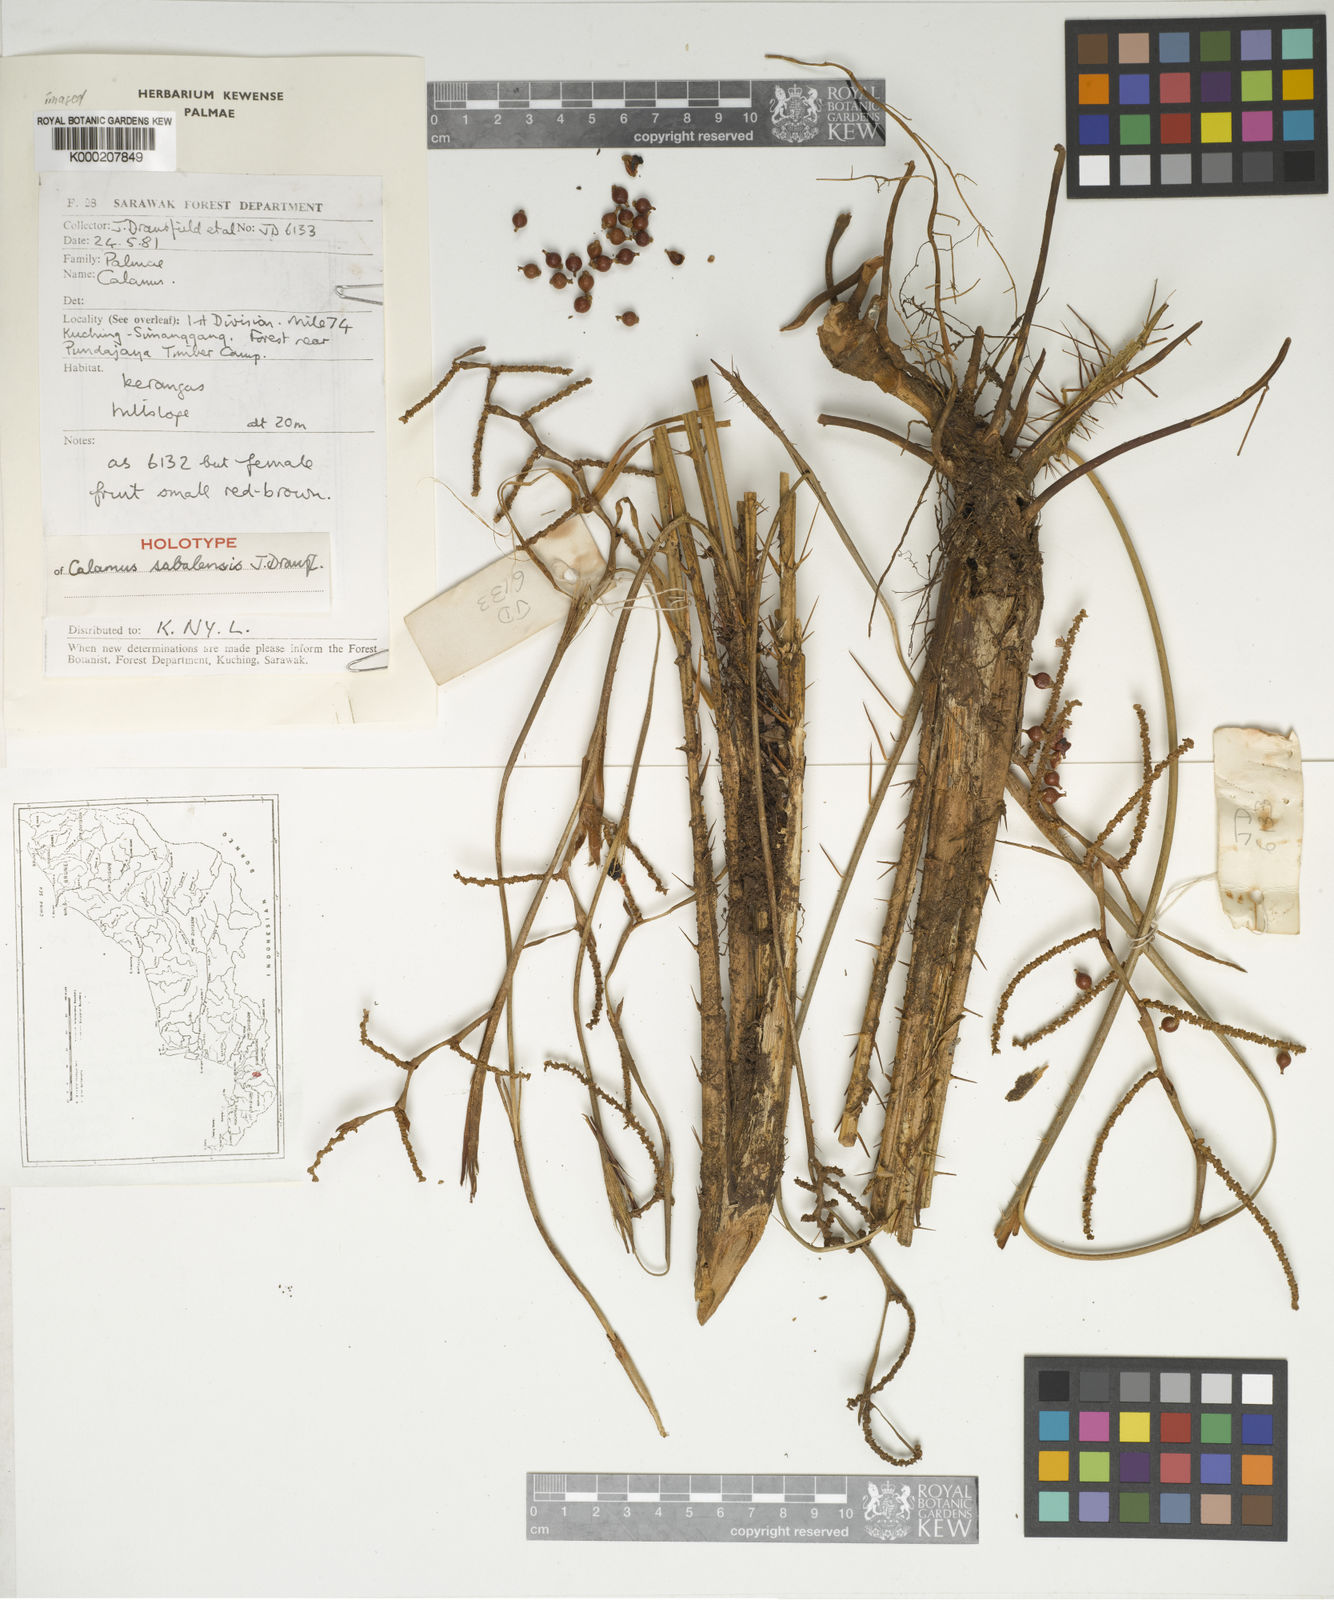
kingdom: Plantae
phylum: Tracheophyta
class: Liliopsida
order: Arecales
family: Arecaceae
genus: Calamus
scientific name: Calamus sabalensis
